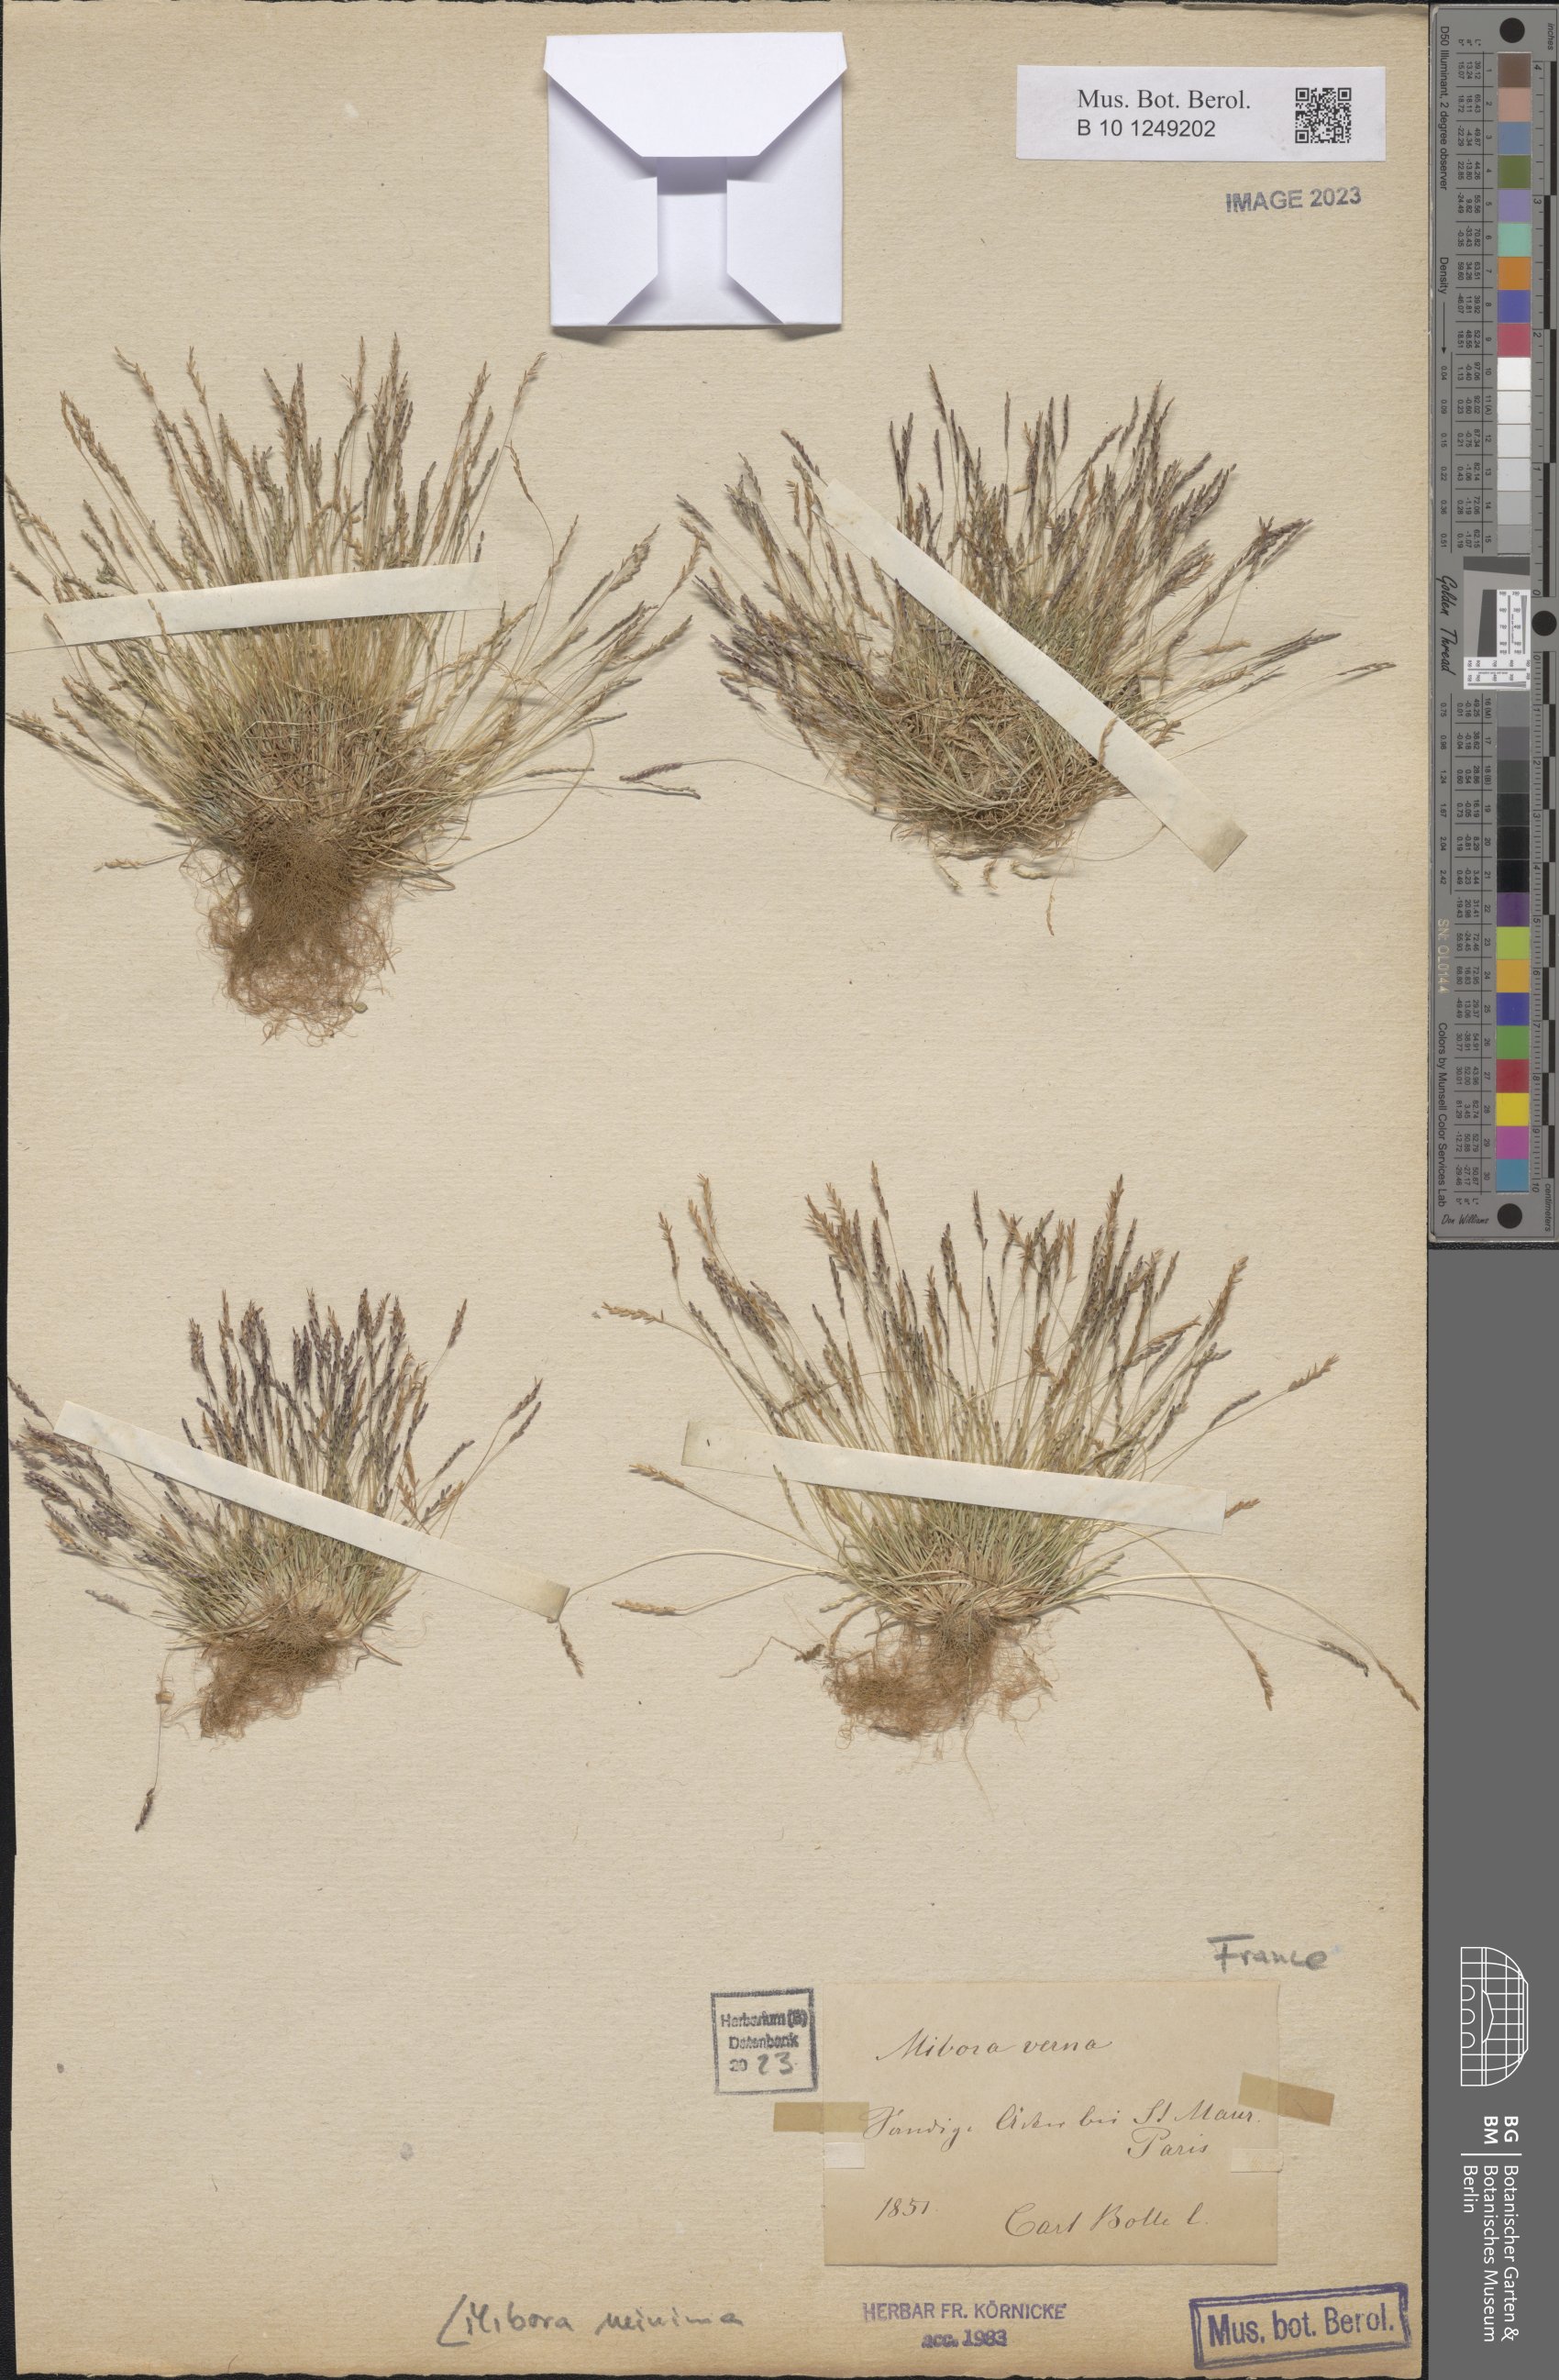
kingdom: Plantae
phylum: Tracheophyta
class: Liliopsida
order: Poales
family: Poaceae
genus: Mibora
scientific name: Mibora minima
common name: Early sand-grass
